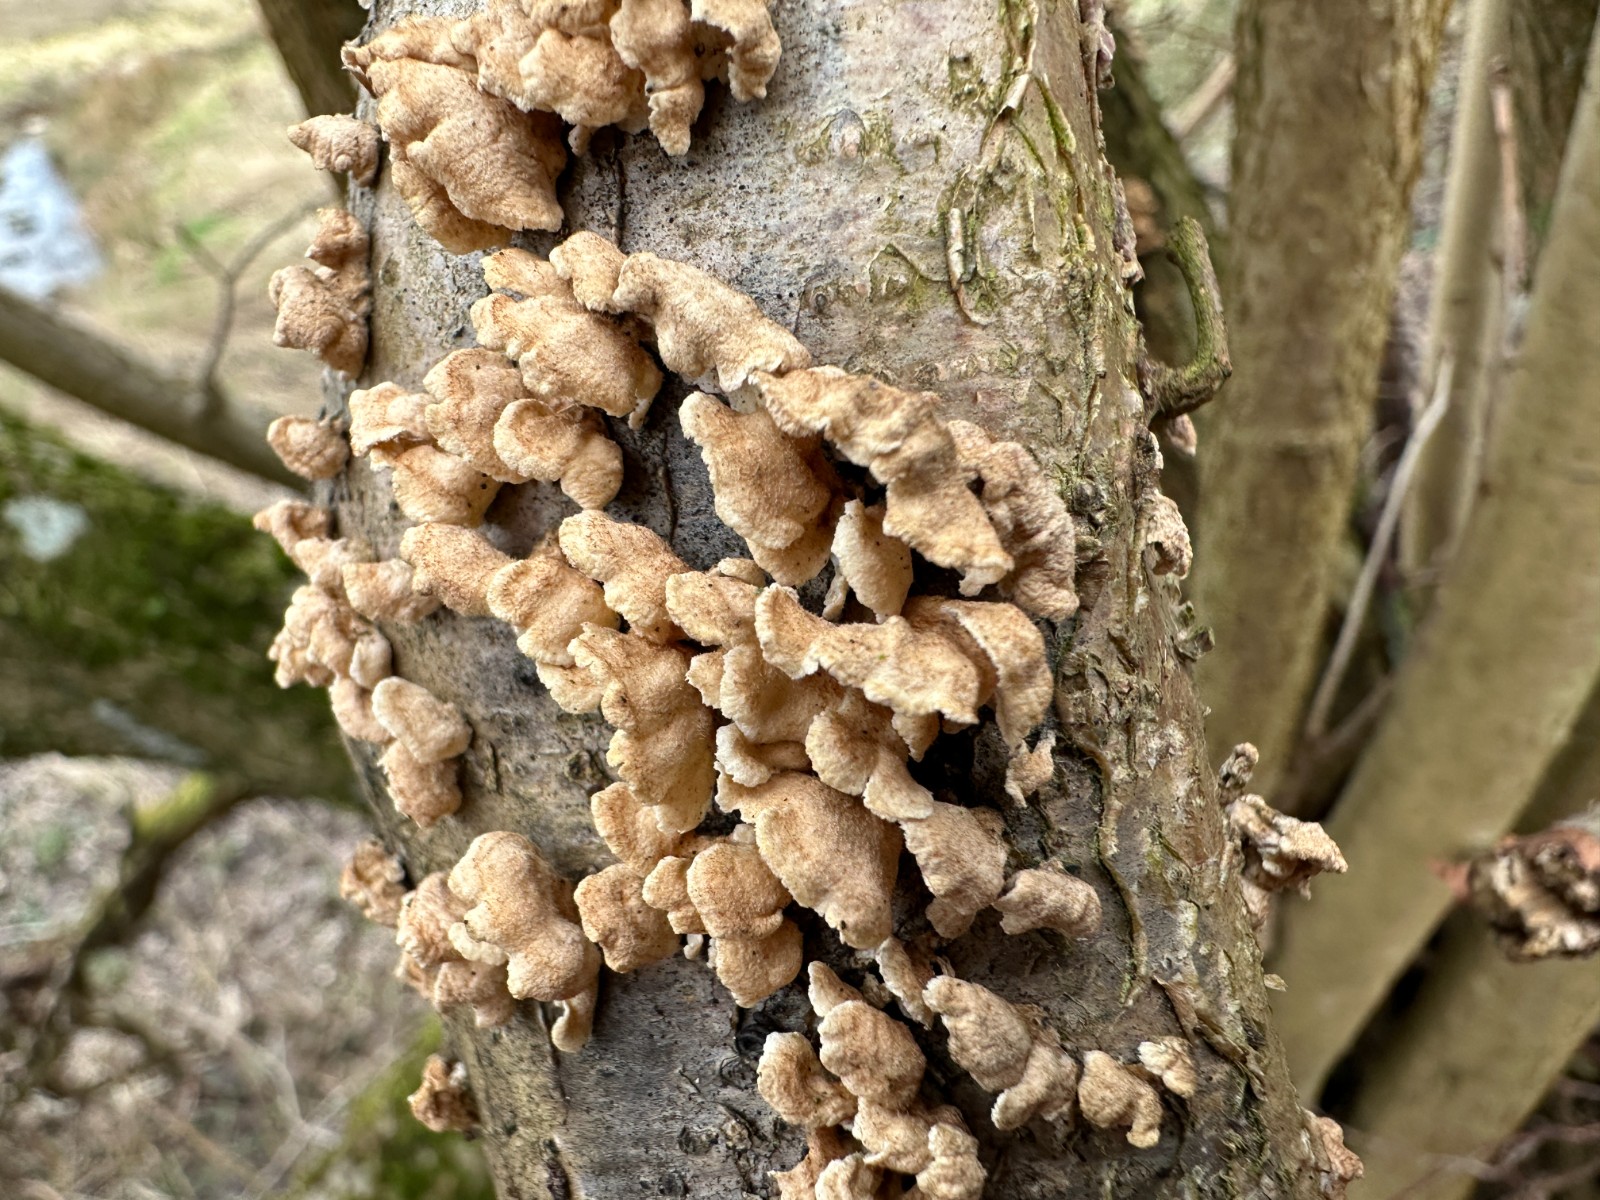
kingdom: Fungi
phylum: Basidiomycota
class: Agaricomycetes
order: Amylocorticiales
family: Amylocorticiaceae
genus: Plicaturopsis
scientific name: Plicaturopsis crispa
